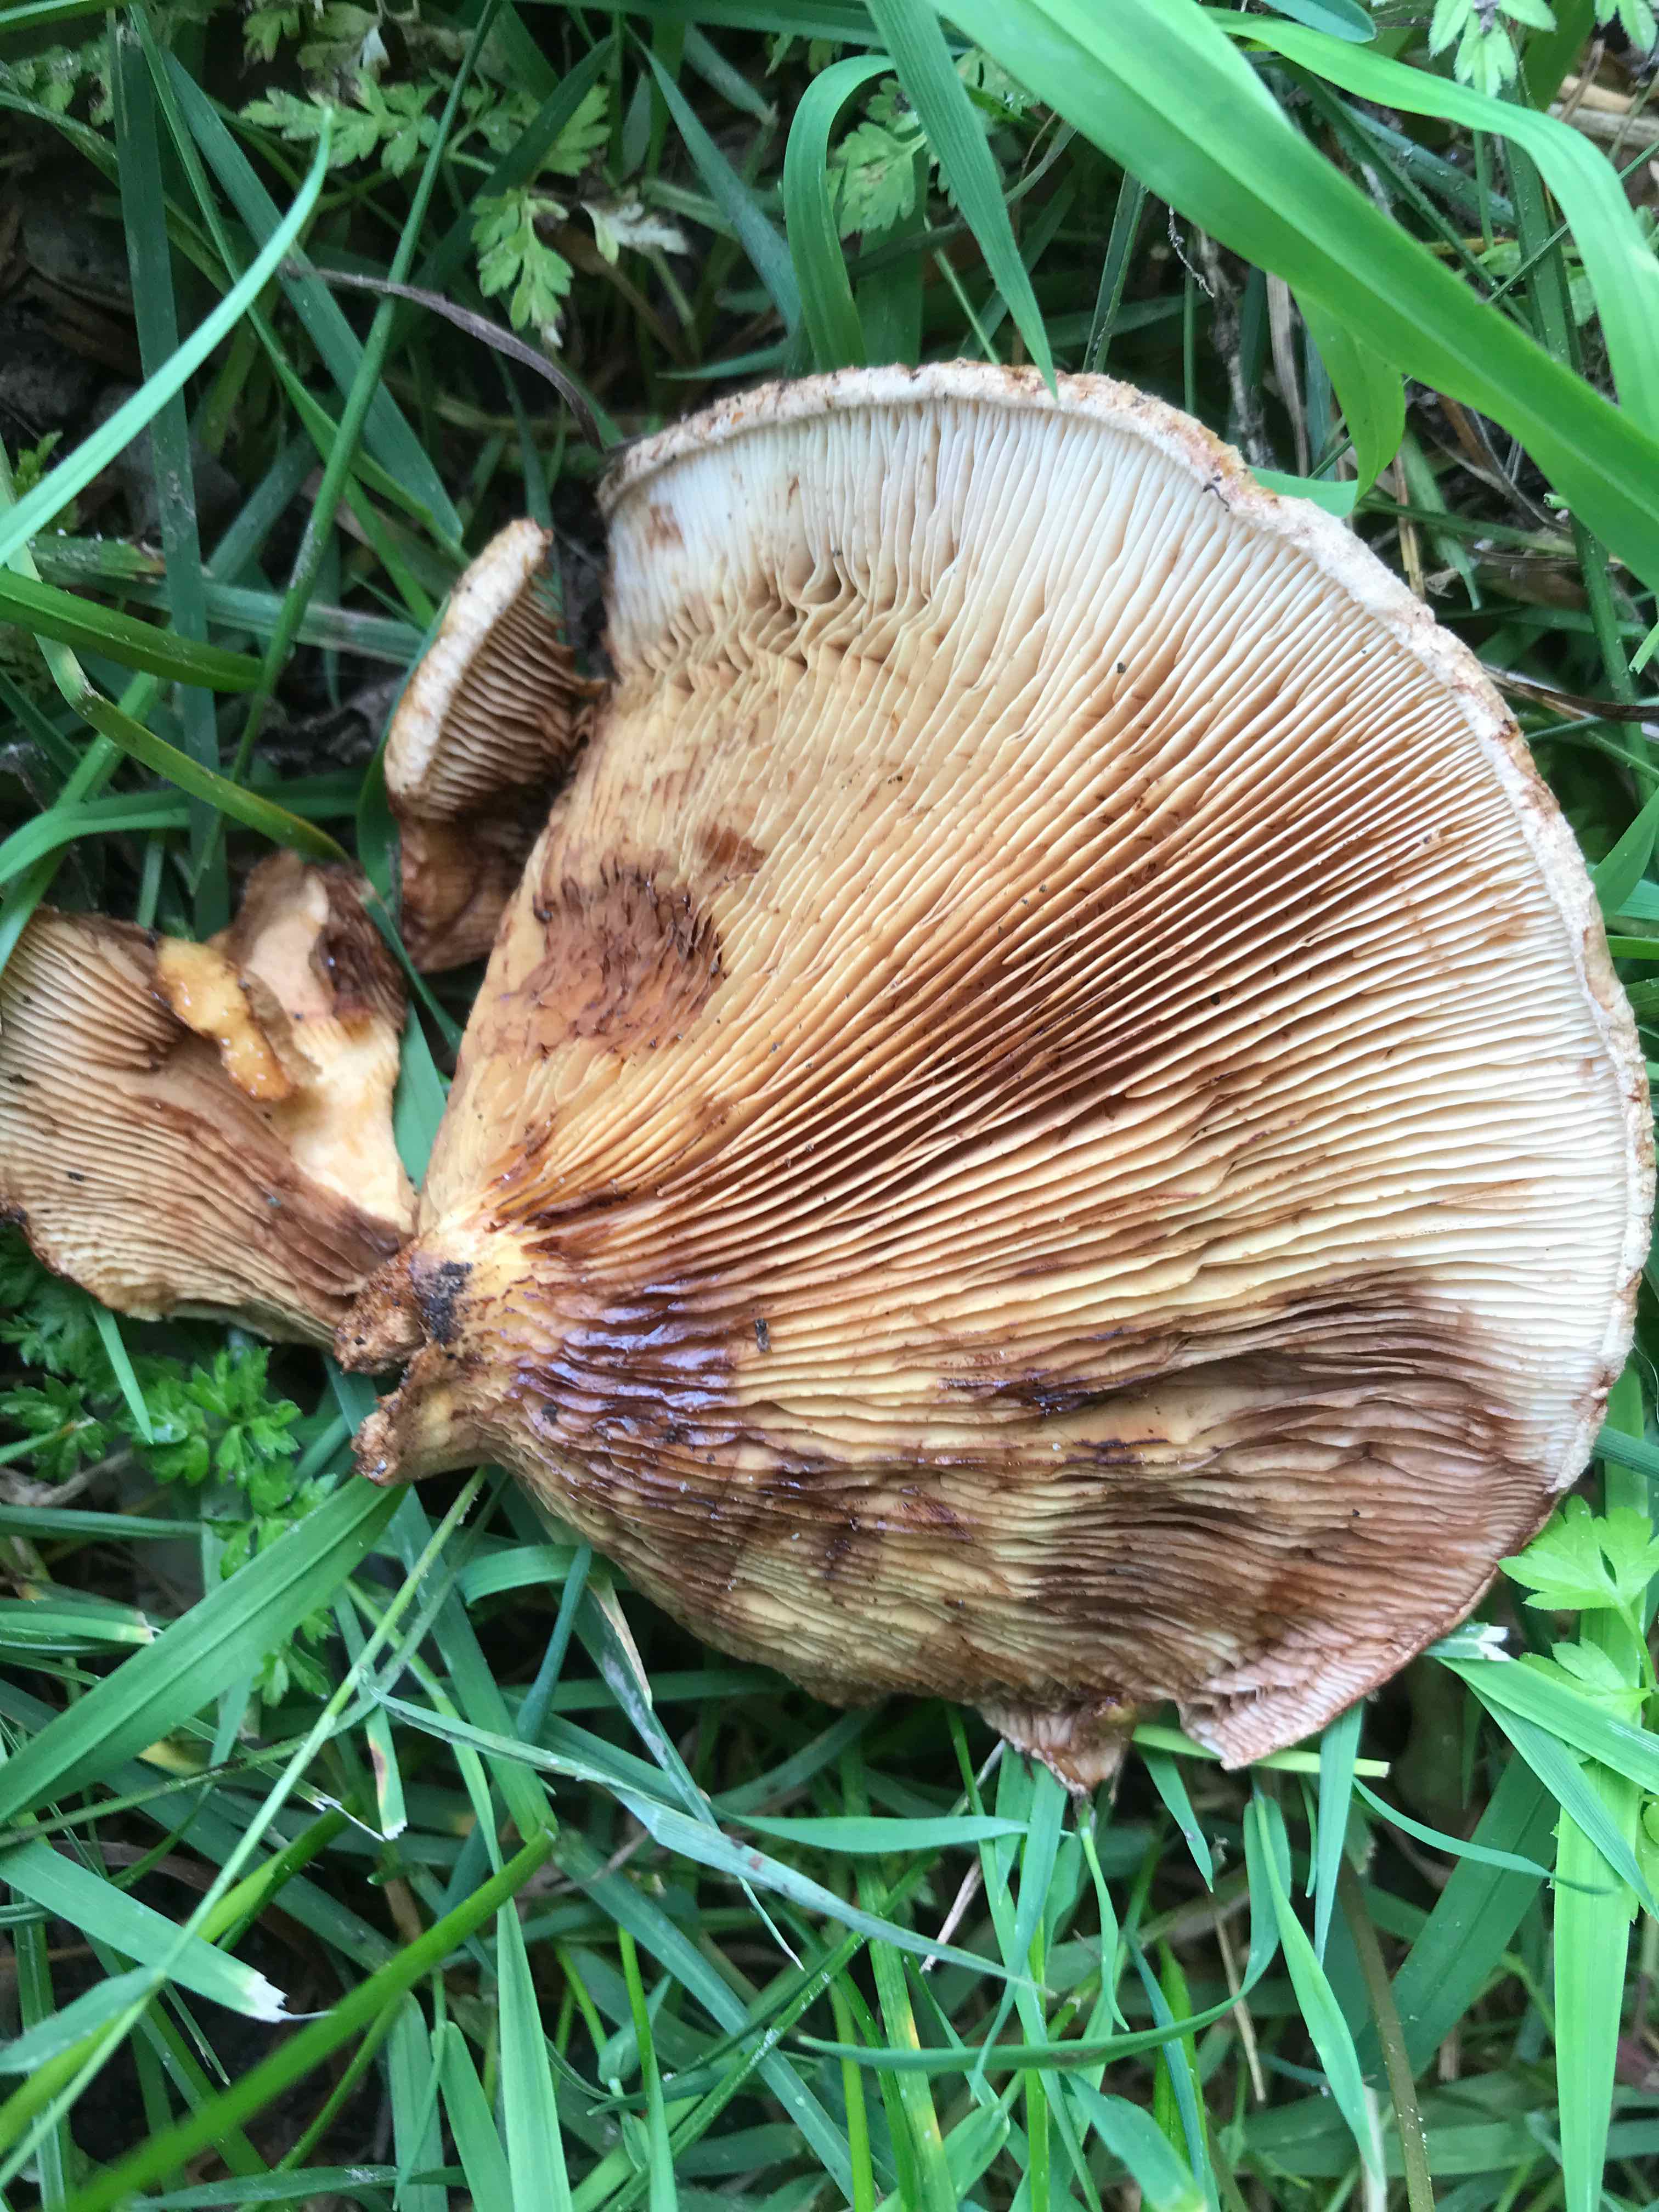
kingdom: Fungi
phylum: Basidiomycota
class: Agaricomycetes
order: Boletales
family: Paxillaceae
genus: Paxillus
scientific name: Paxillus
